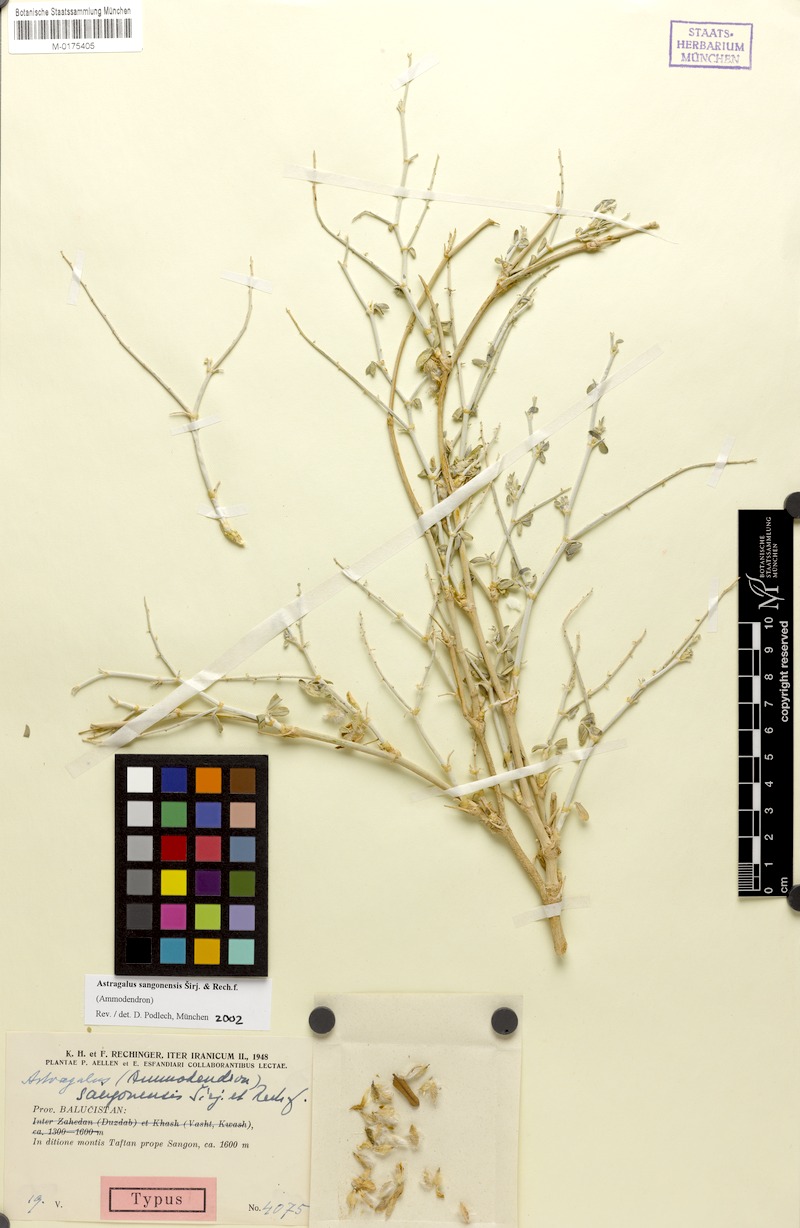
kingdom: Plantae
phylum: Tracheophyta
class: Magnoliopsida
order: Fabales
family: Fabaceae
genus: Astragalus
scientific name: Astragalus sangonensis
